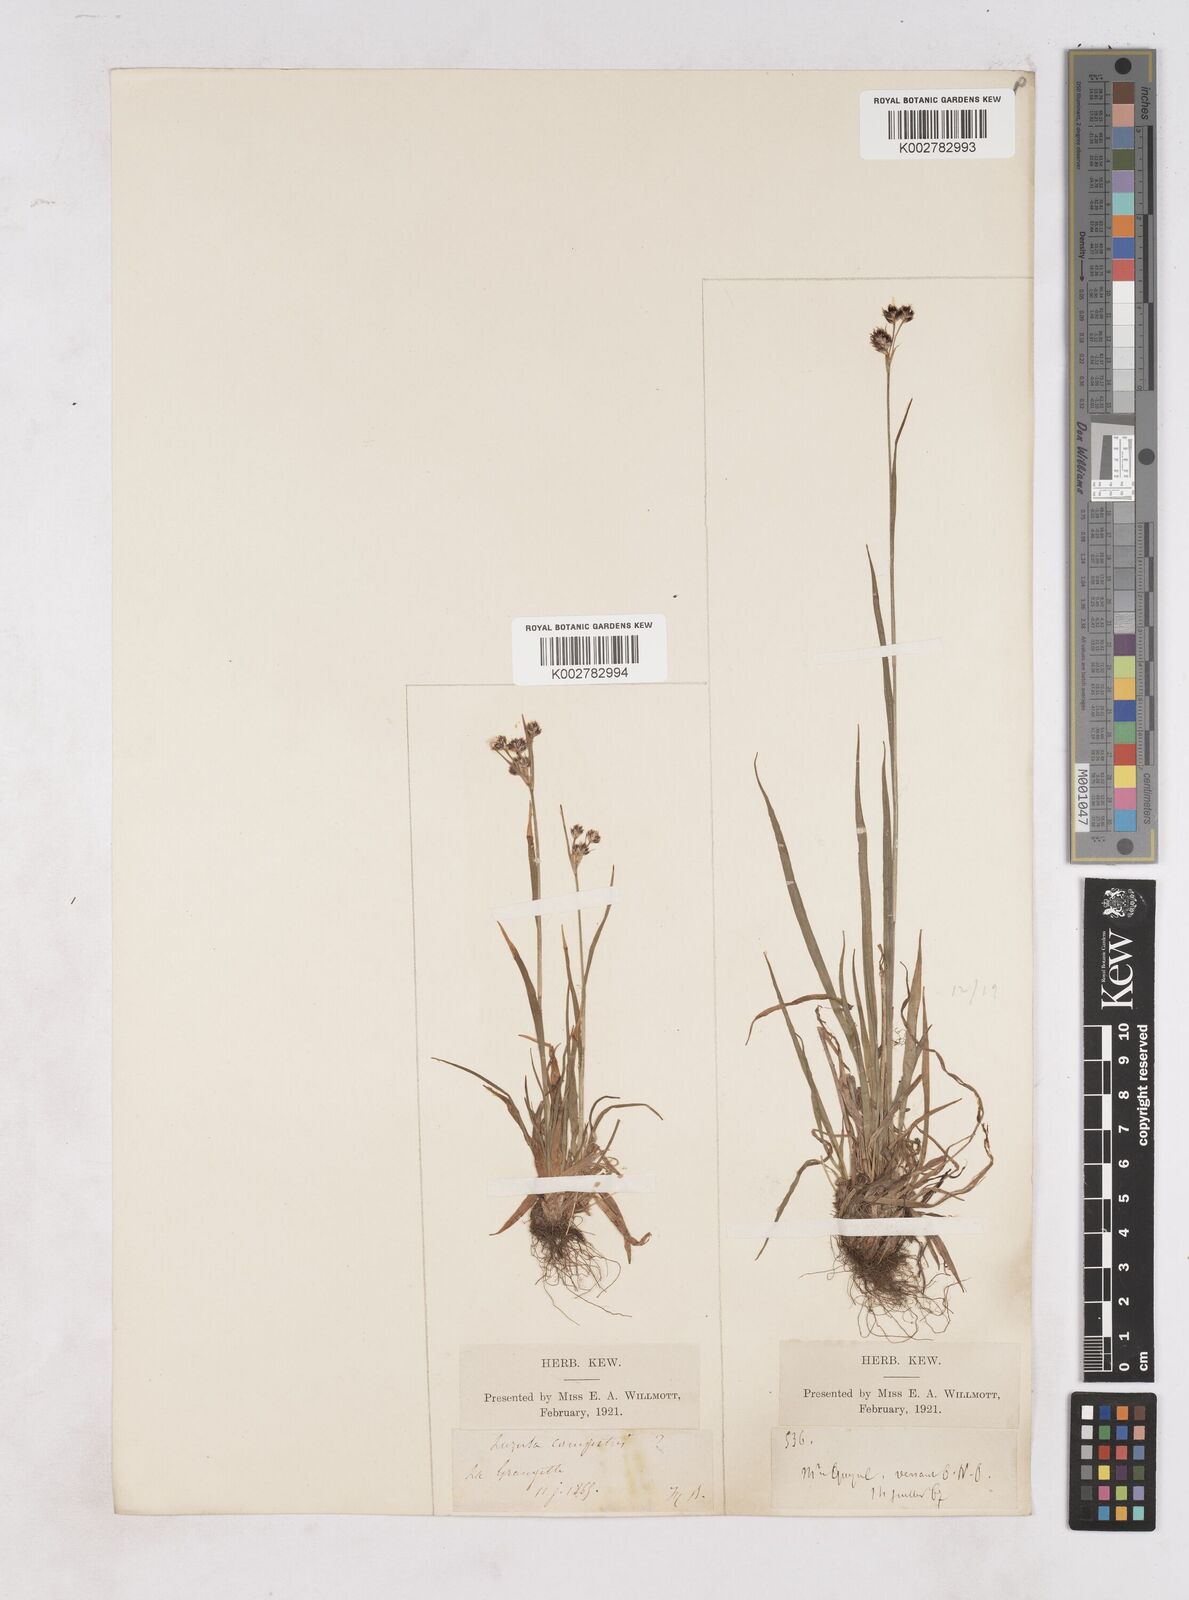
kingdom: Plantae
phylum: Tracheophyta
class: Liliopsida
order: Poales
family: Juncaceae
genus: Luzula
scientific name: Luzula campestris
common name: Field wood-rush
